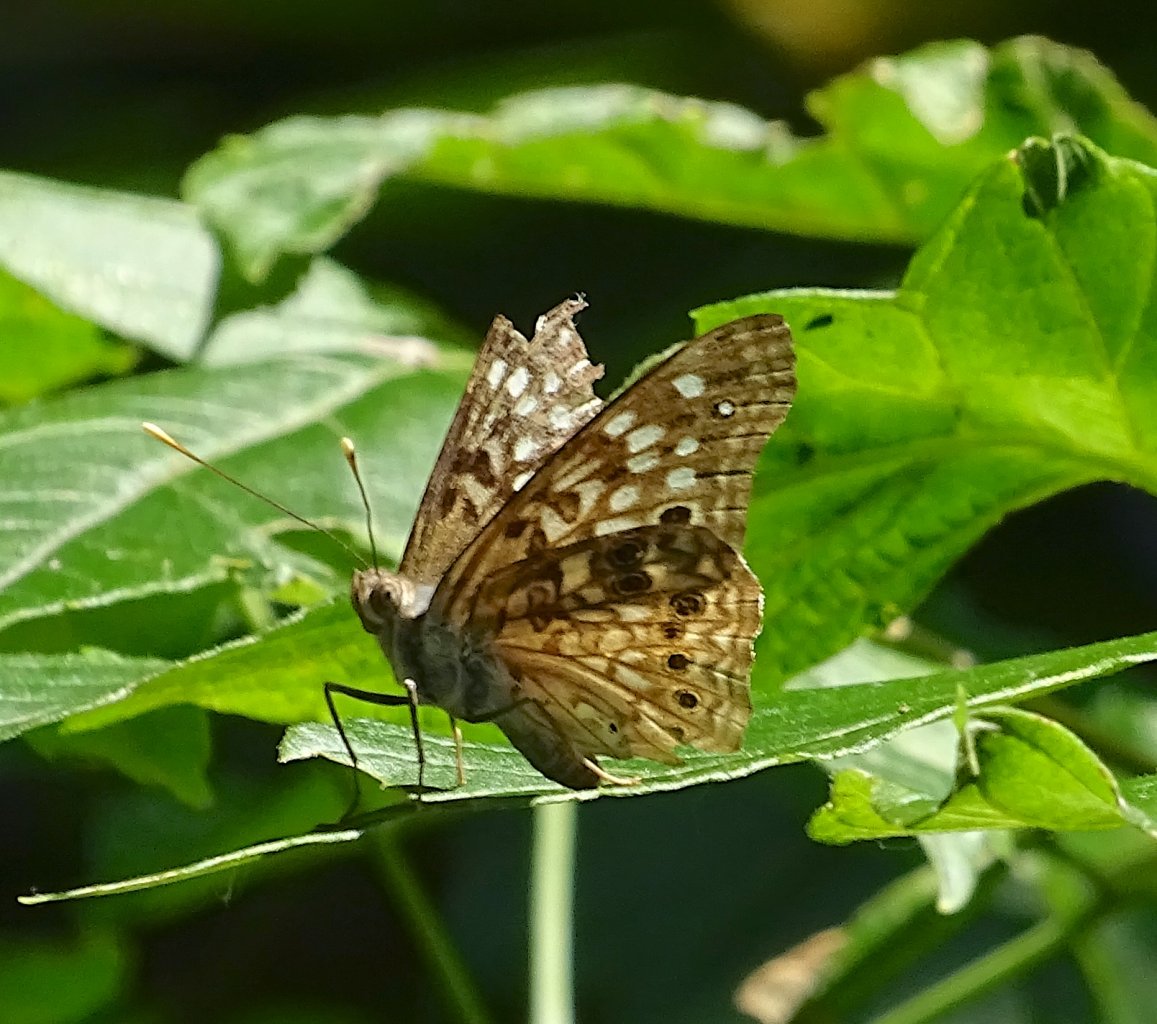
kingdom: Animalia
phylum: Arthropoda
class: Insecta
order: Lepidoptera
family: Nymphalidae
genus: Asterocampa
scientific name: Asterocampa celtis
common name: Hackberry Emperor
